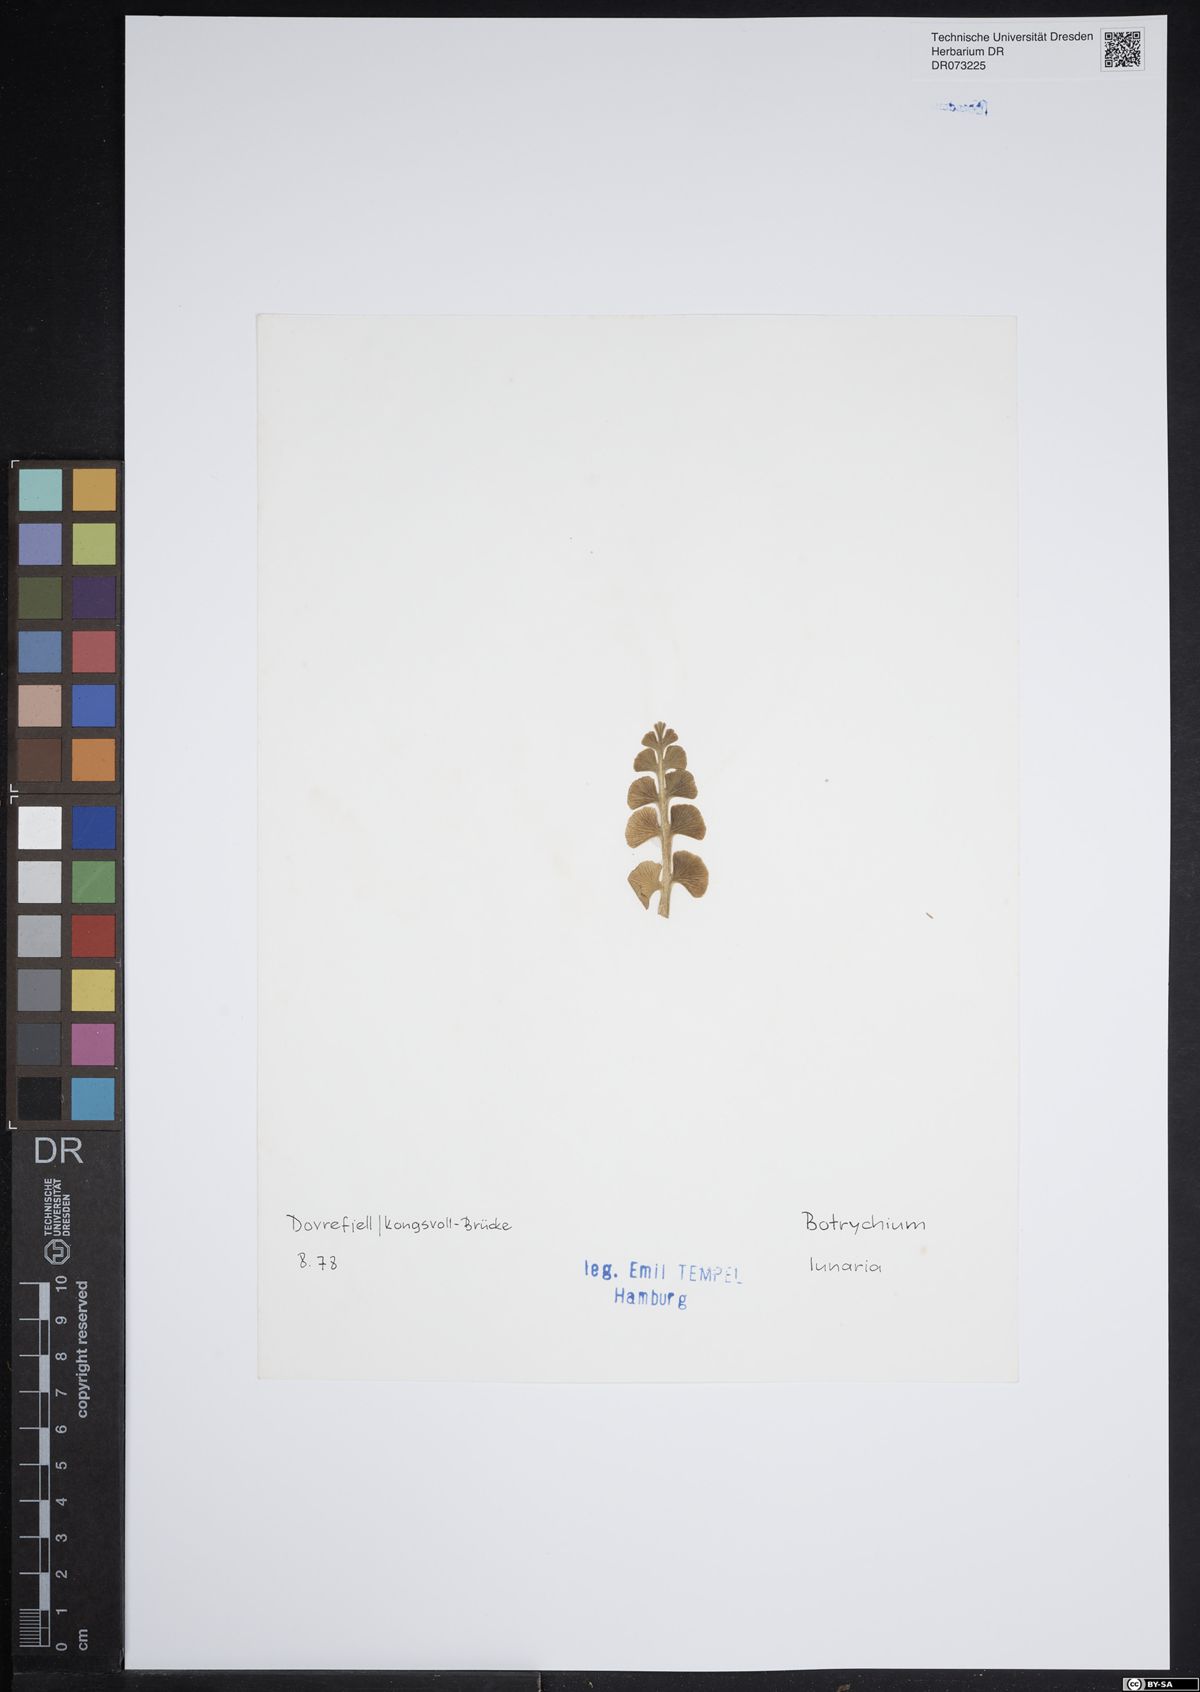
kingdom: Plantae
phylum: Tracheophyta
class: Polypodiopsida
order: Ophioglossales
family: Ophioglossaceae
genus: Botrychium
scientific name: Botrychium lunaria
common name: Moonwort
